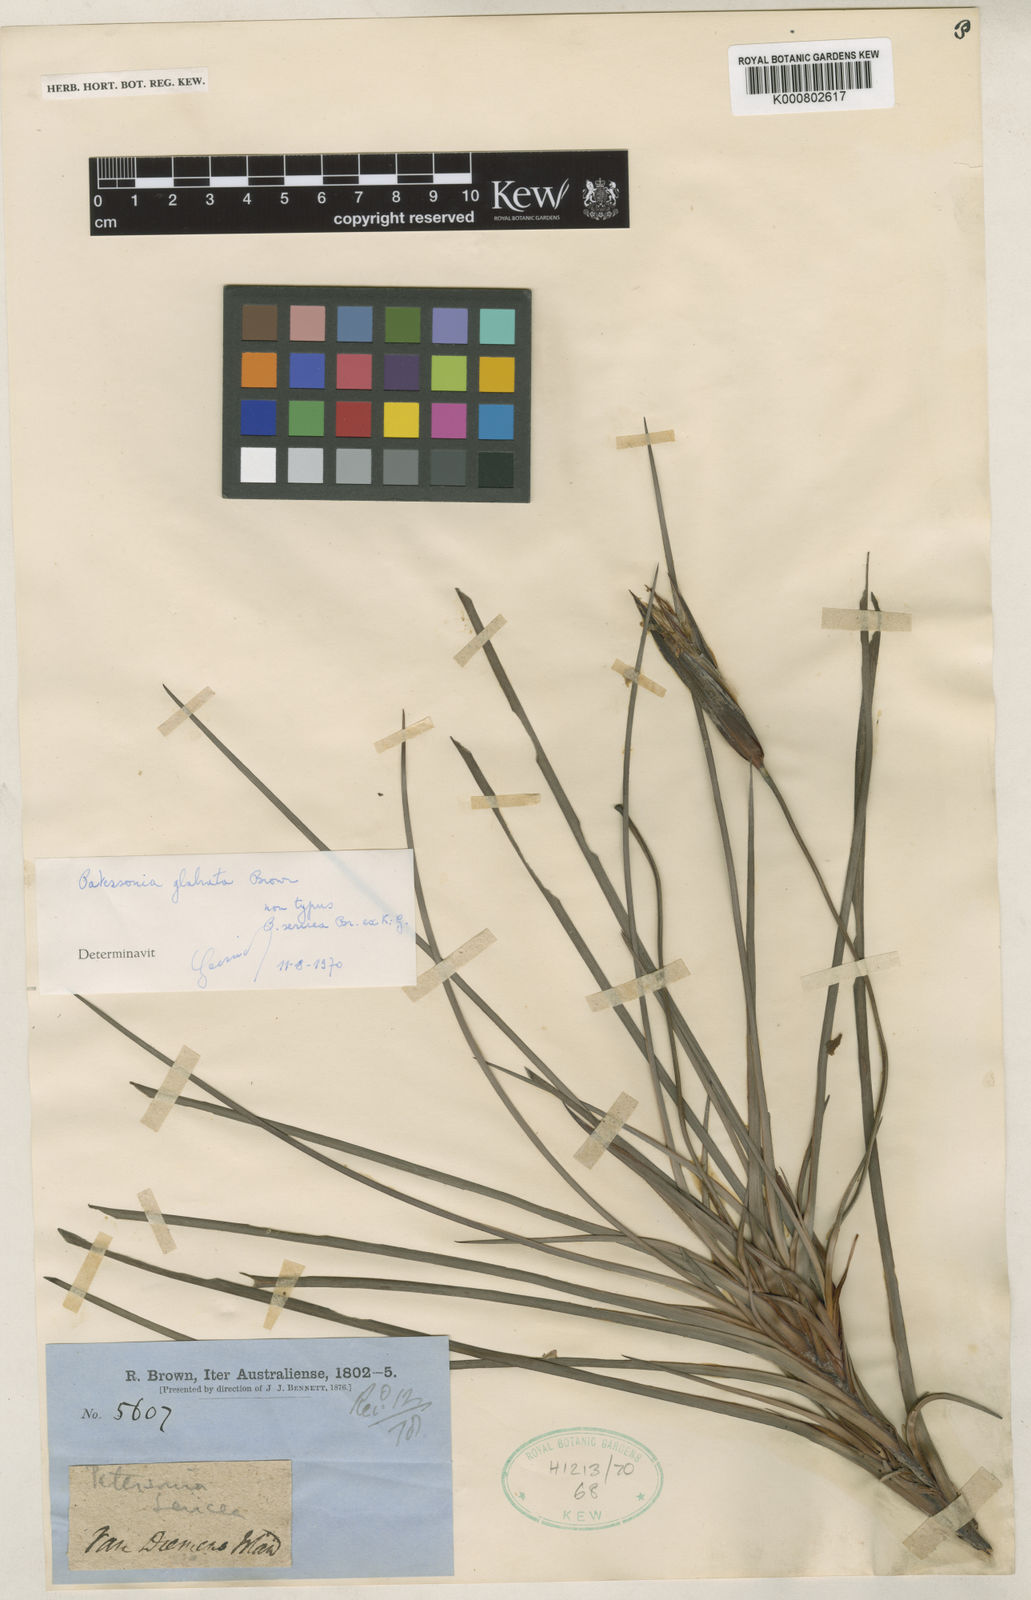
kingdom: Plantae
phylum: Tracheophyta
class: Liliopsida
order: Asparagales
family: Iridaceae
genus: Patersonia
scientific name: Patersonia glabrata
